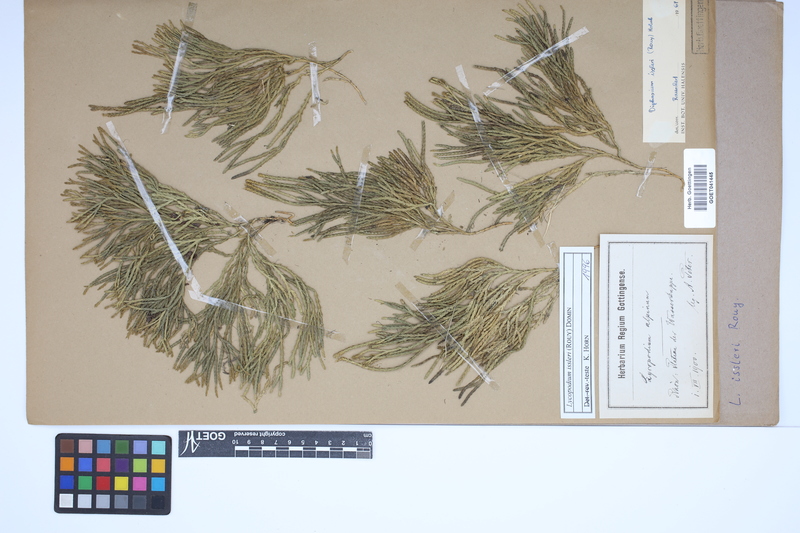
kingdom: Plantae
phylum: Tracheophyta
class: Lycopodiopsida
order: Lycopodiales
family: Lycopodiaceae
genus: Diphasiastrum
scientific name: Diphasiastrum issleri
